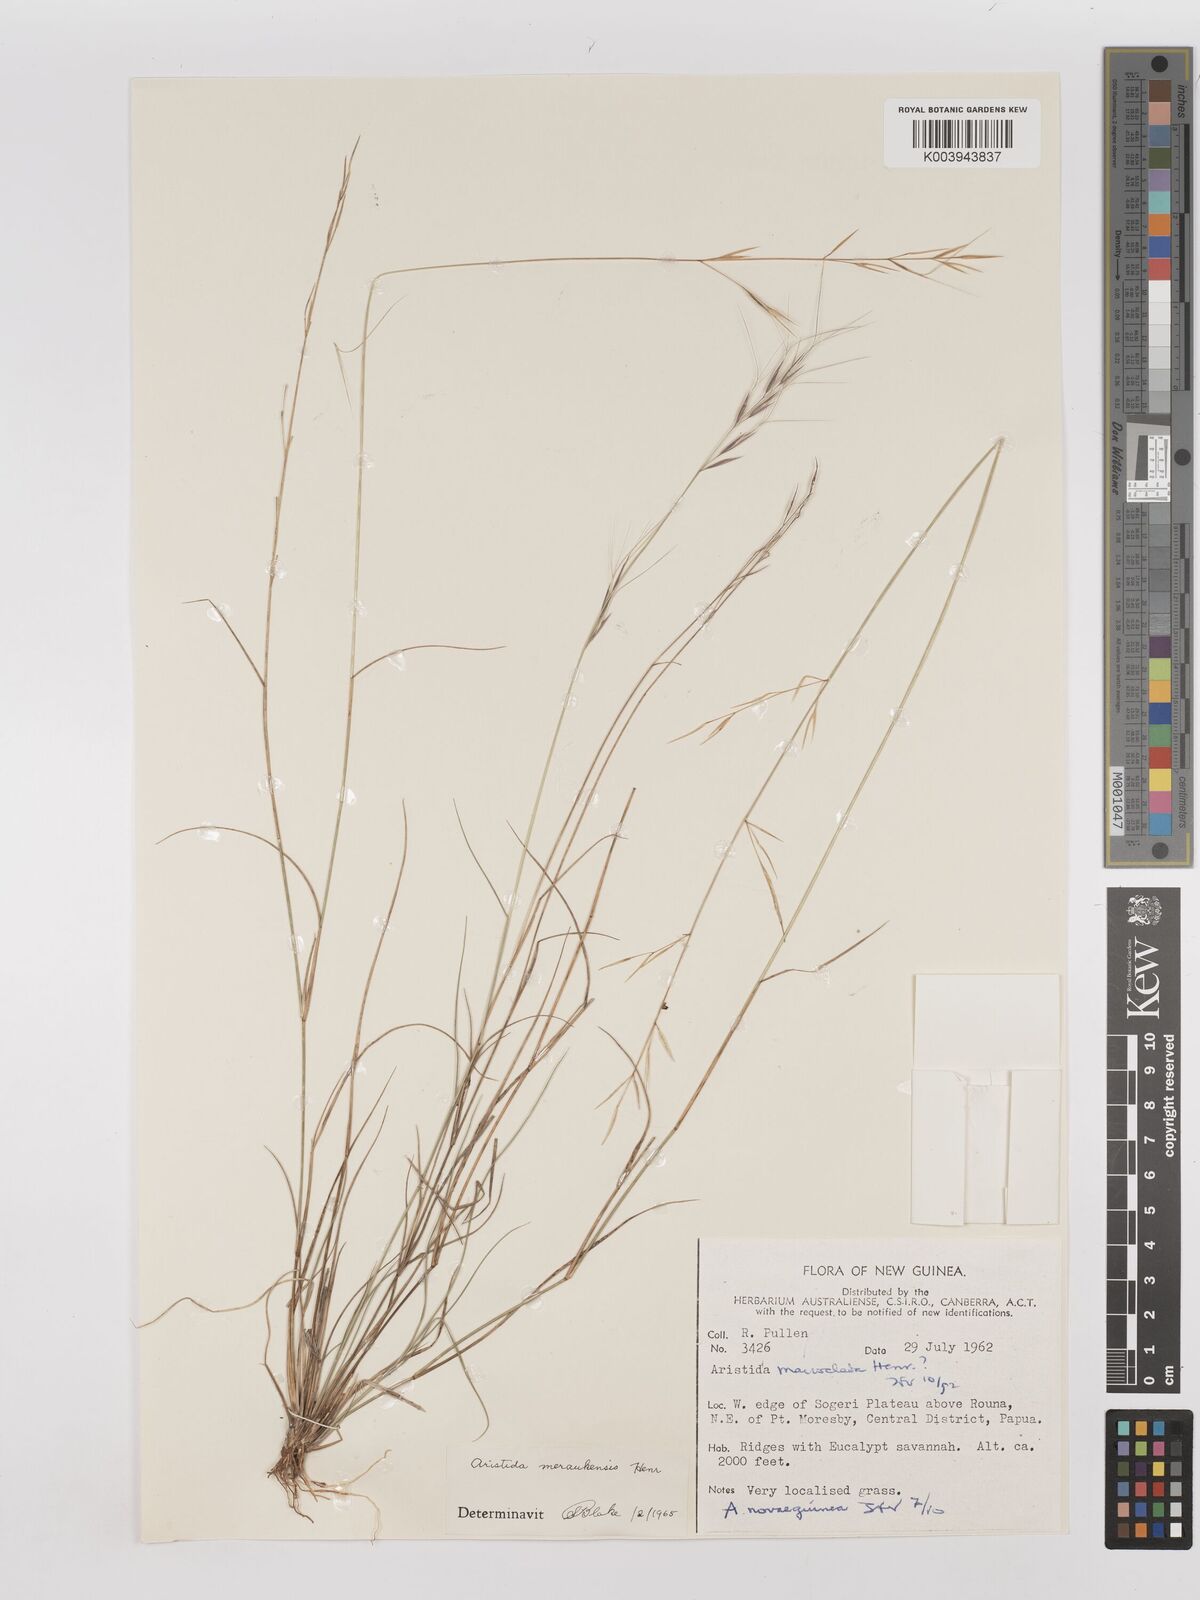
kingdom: Plantae
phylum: Tracheophyta
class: Liliopsida
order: Poales
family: Poaceae
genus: Aristida
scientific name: Aristida macroclada
